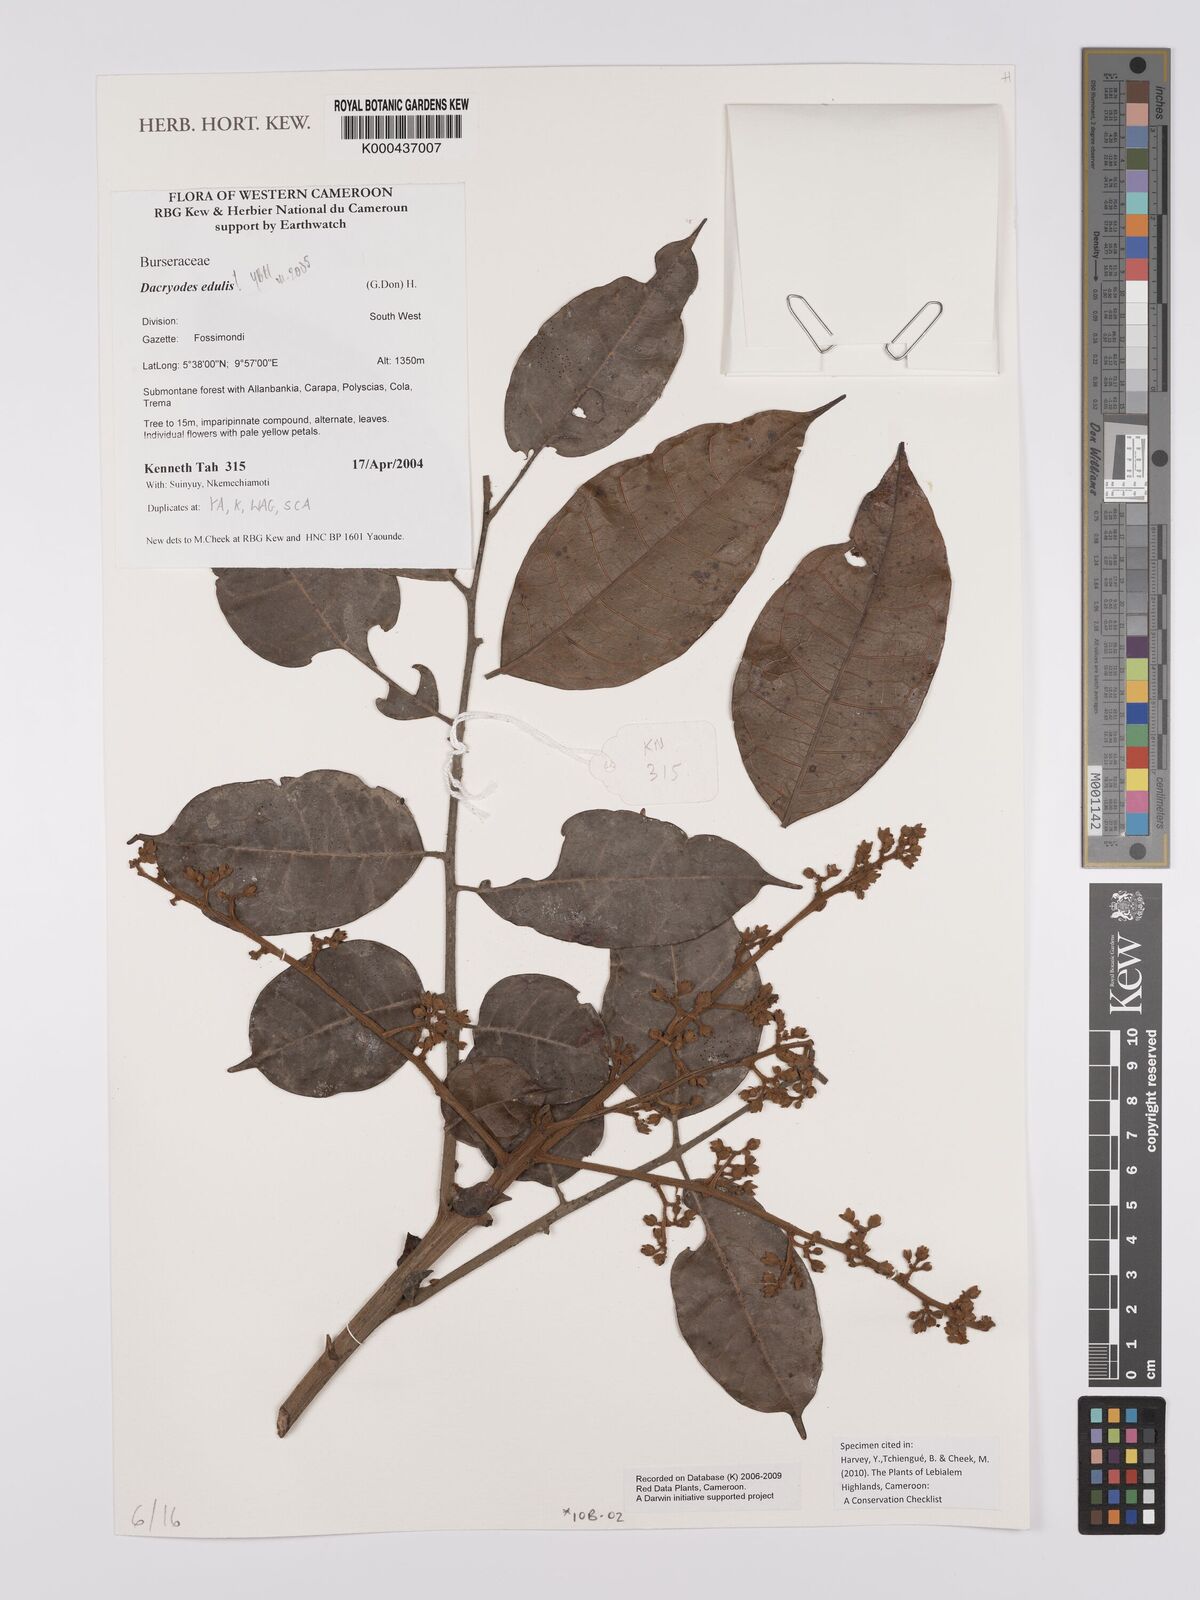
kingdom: Plantae
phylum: Tracheophyta
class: Magnoliopsida
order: Sapindales
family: Burseraceae
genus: Pachylobus
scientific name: Pachylobus edulis
